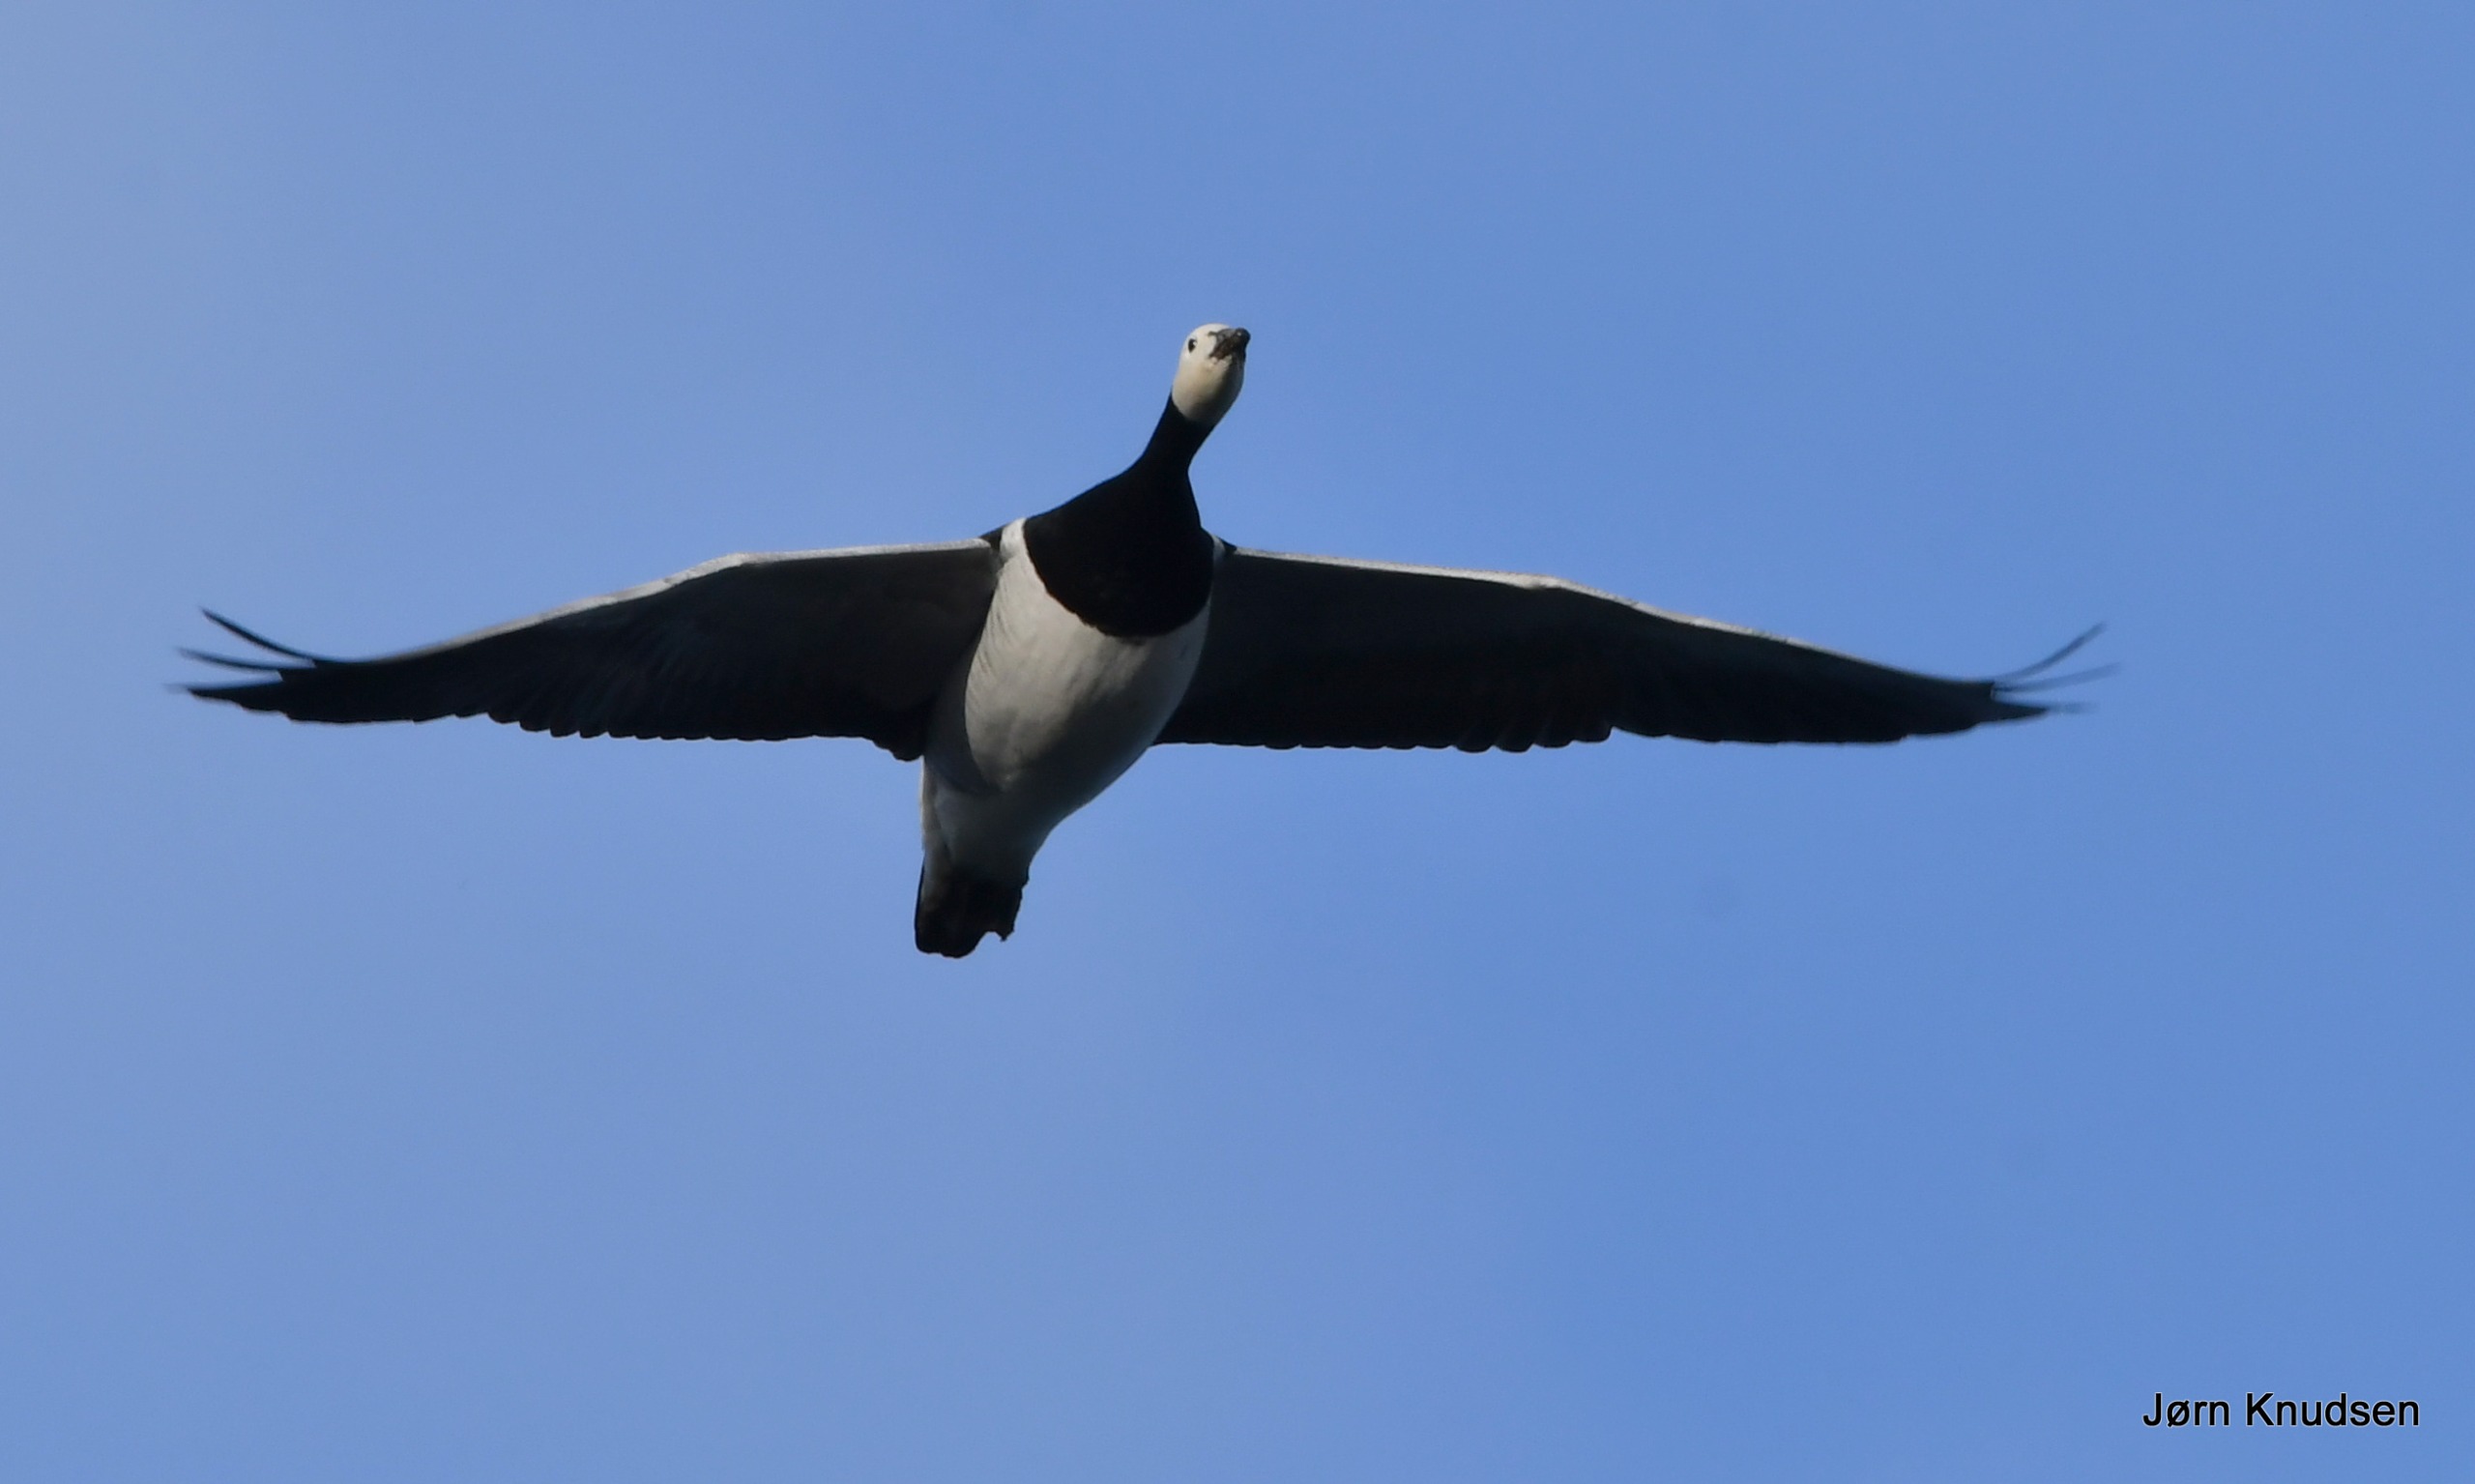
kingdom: Animalia
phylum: Chordata
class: Aves
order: Anseriformes
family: Anatidae
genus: Branta
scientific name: Branta leucopsis
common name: Bramgås
